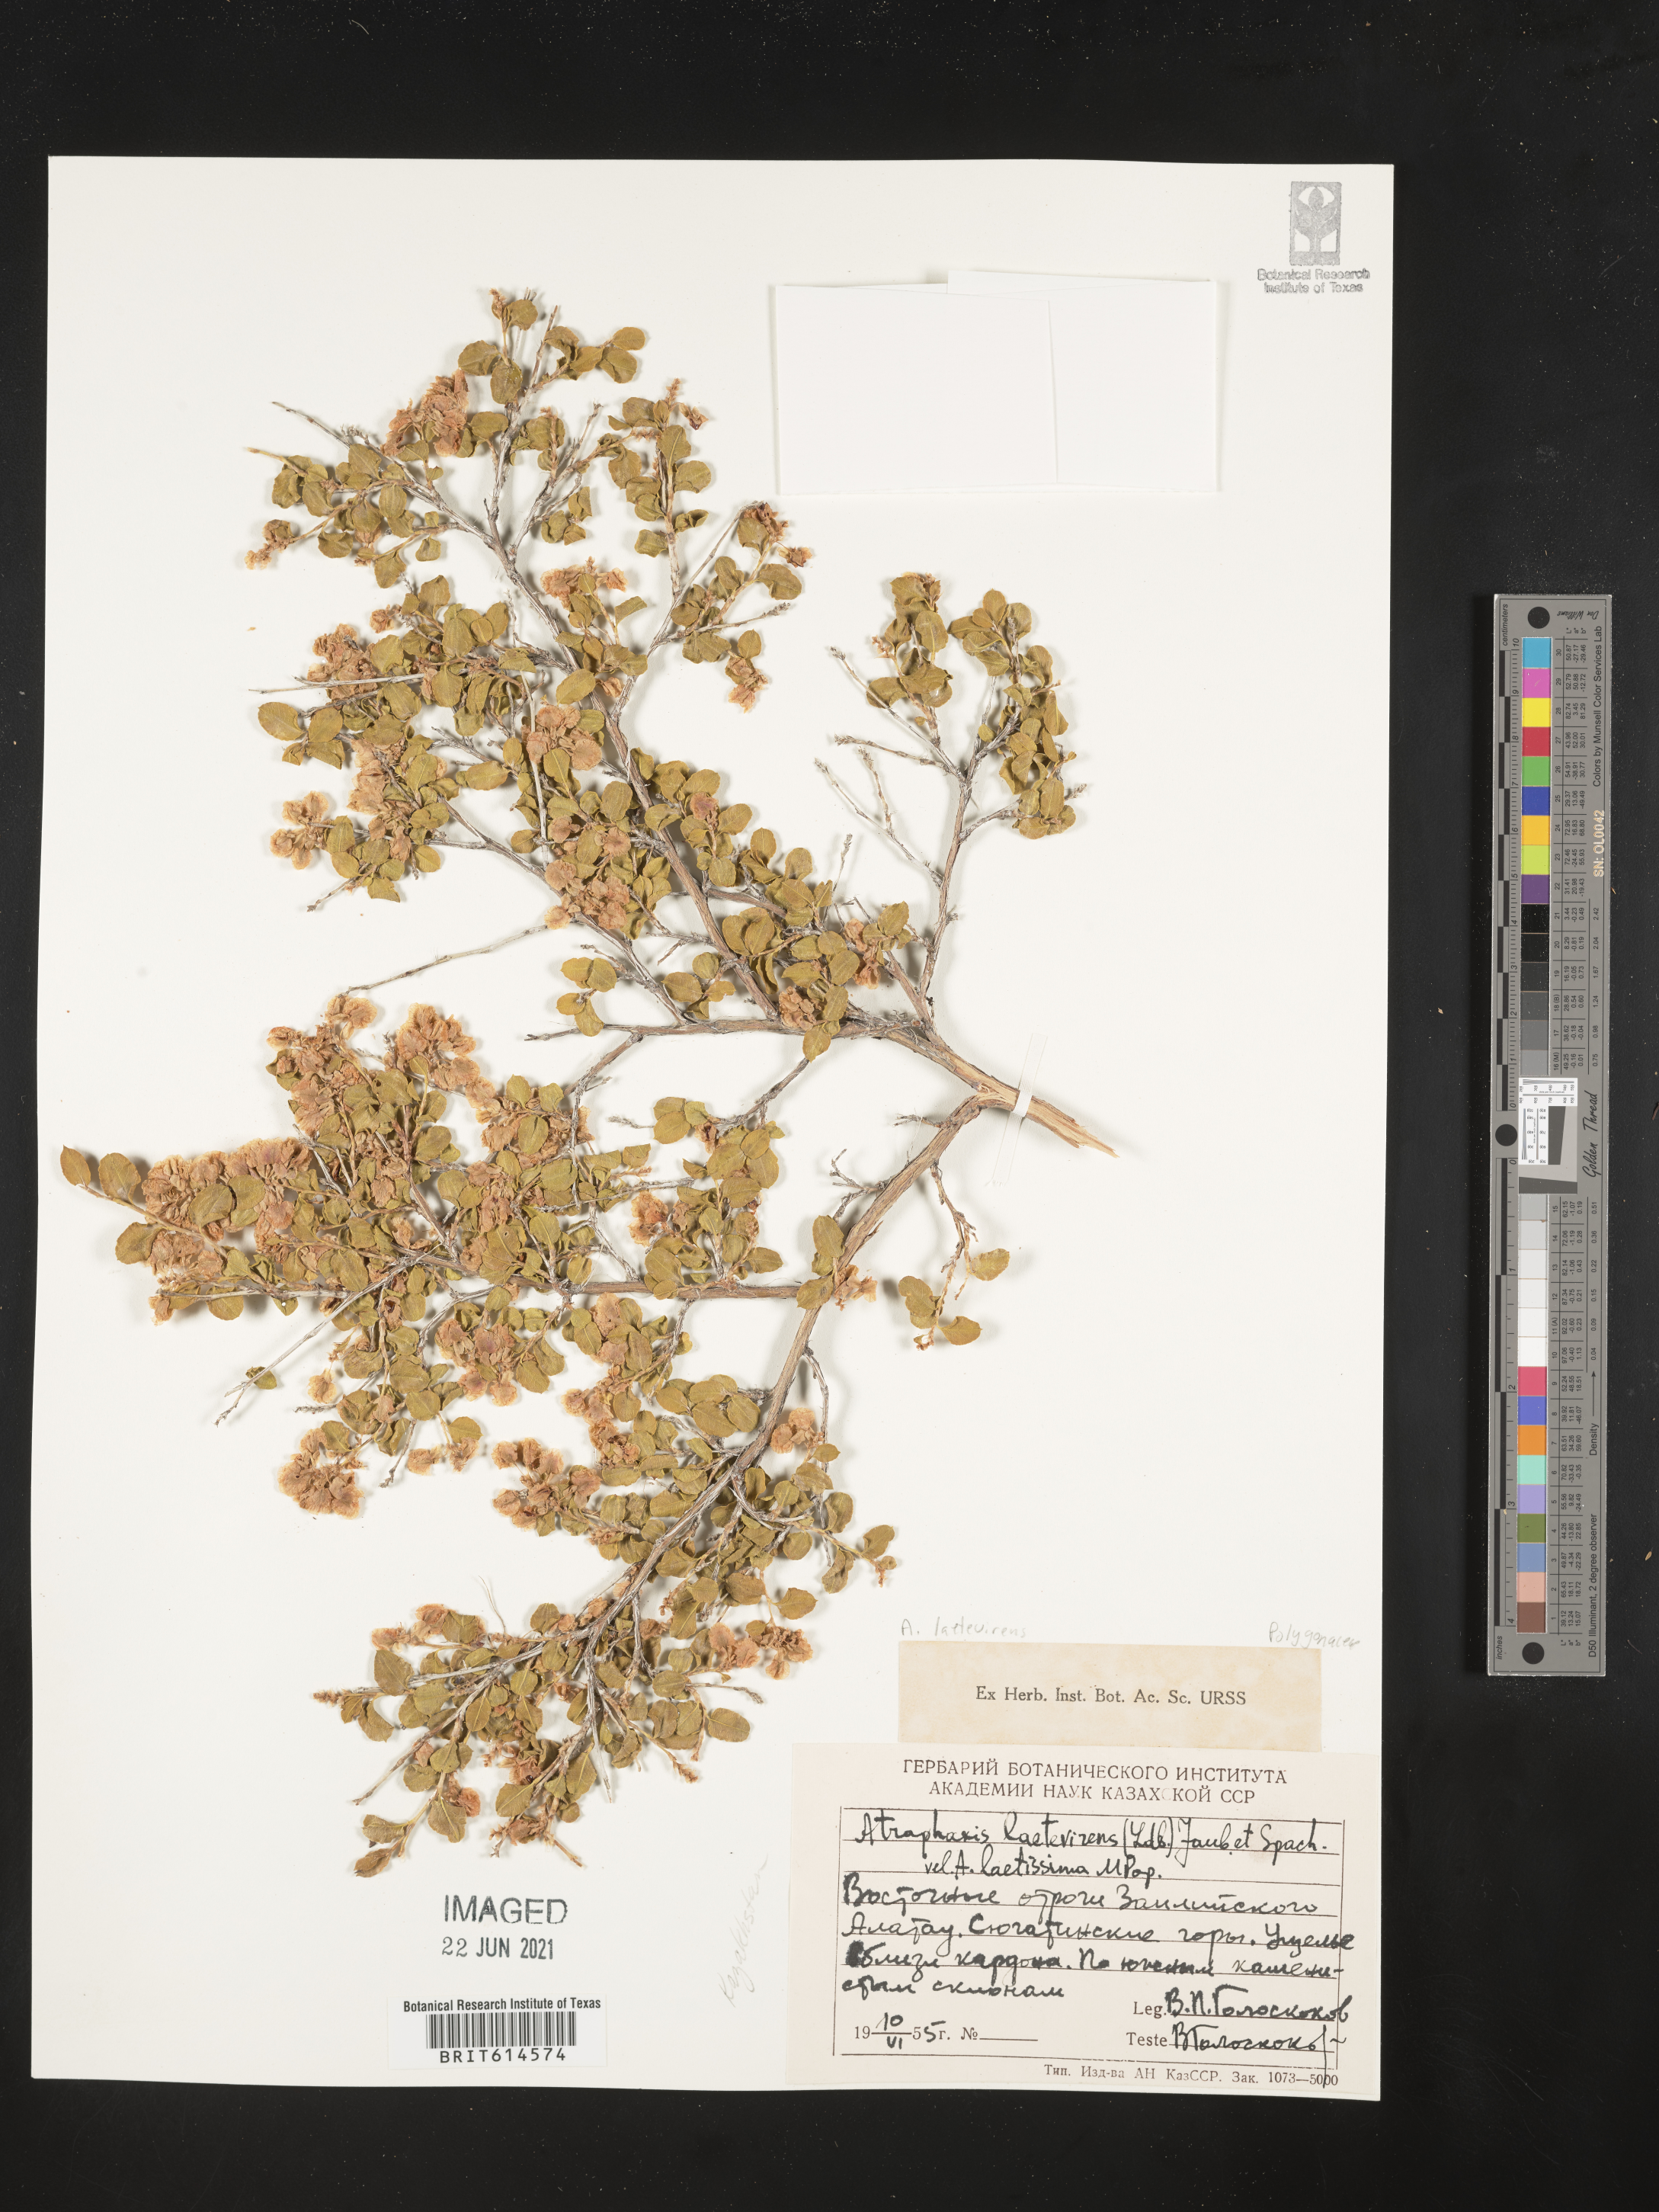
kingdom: Plantae
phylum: Tracheophyta
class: Magnoliopsida
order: Caryophyllales
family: Polygonaceae
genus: Atraphaxis
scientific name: Atraphaxis laetevirens
